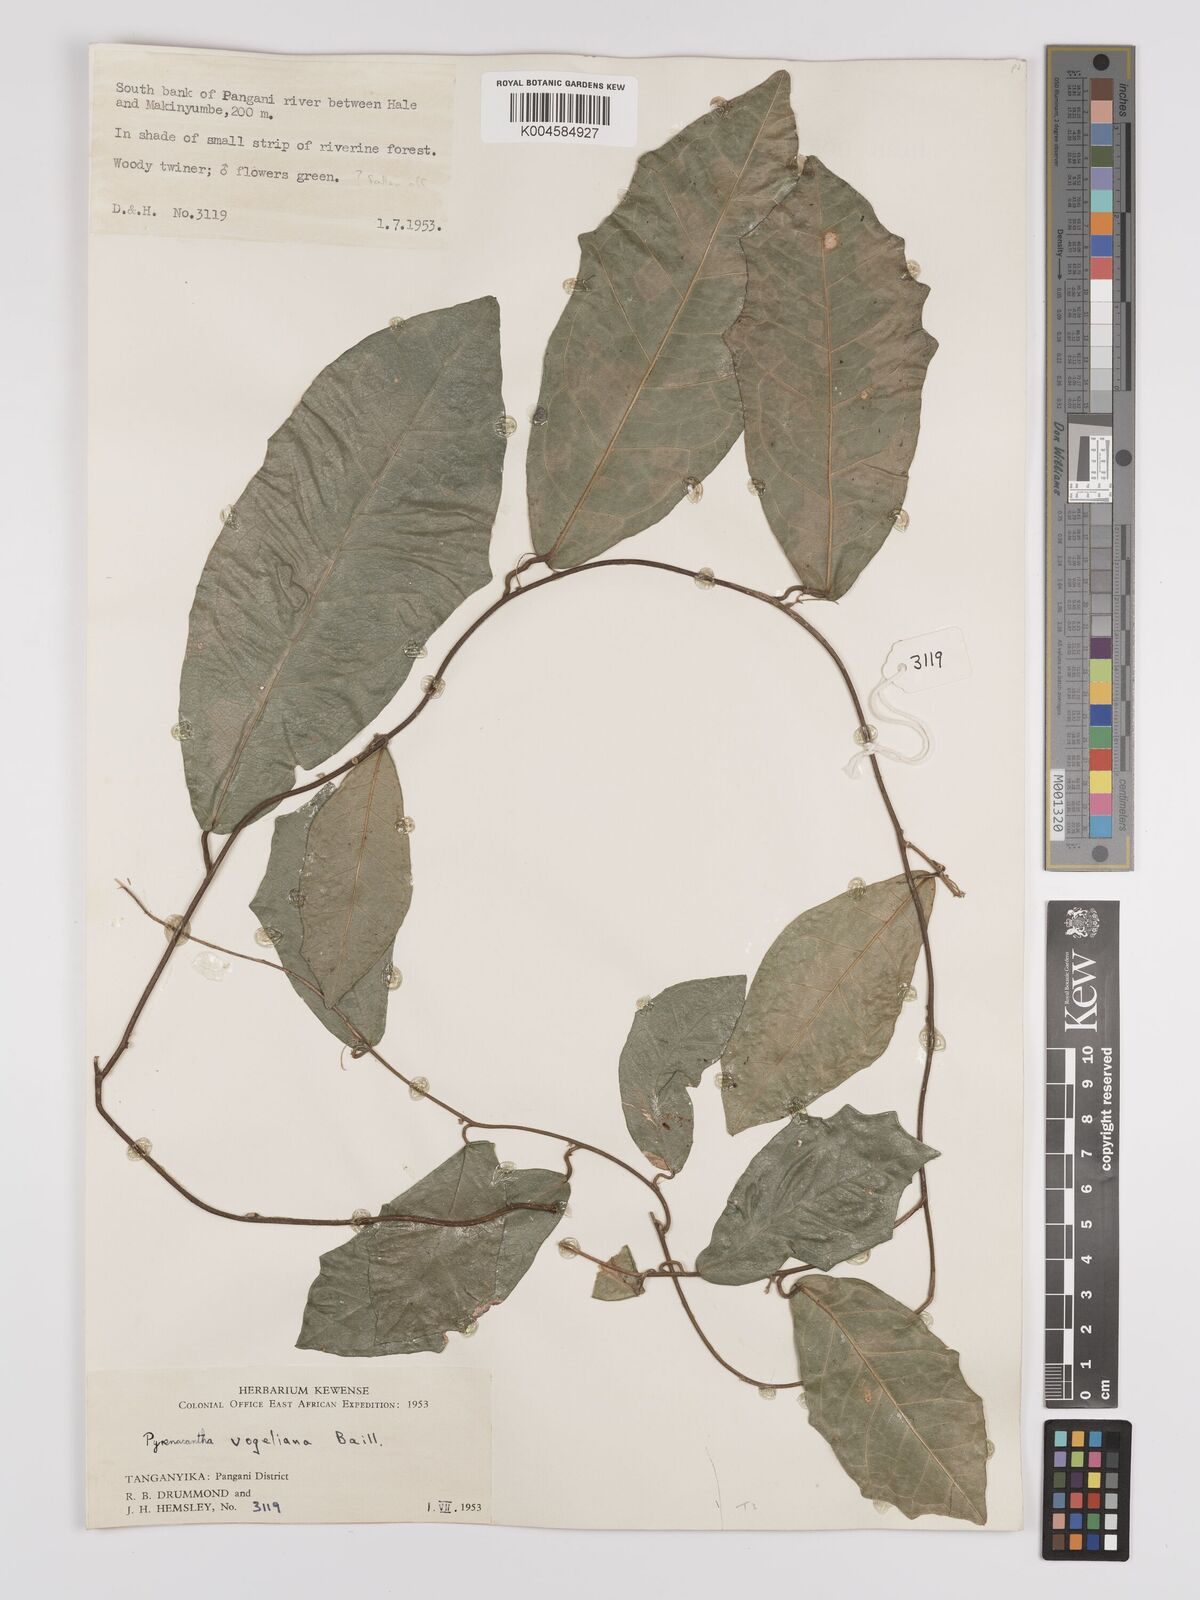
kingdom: Plantae
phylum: Tracheophyta
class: Magnoliopsida
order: Icacinales
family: Icacinaceae
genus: Pyrenacantha
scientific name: Pyrenacantha vogeliana
